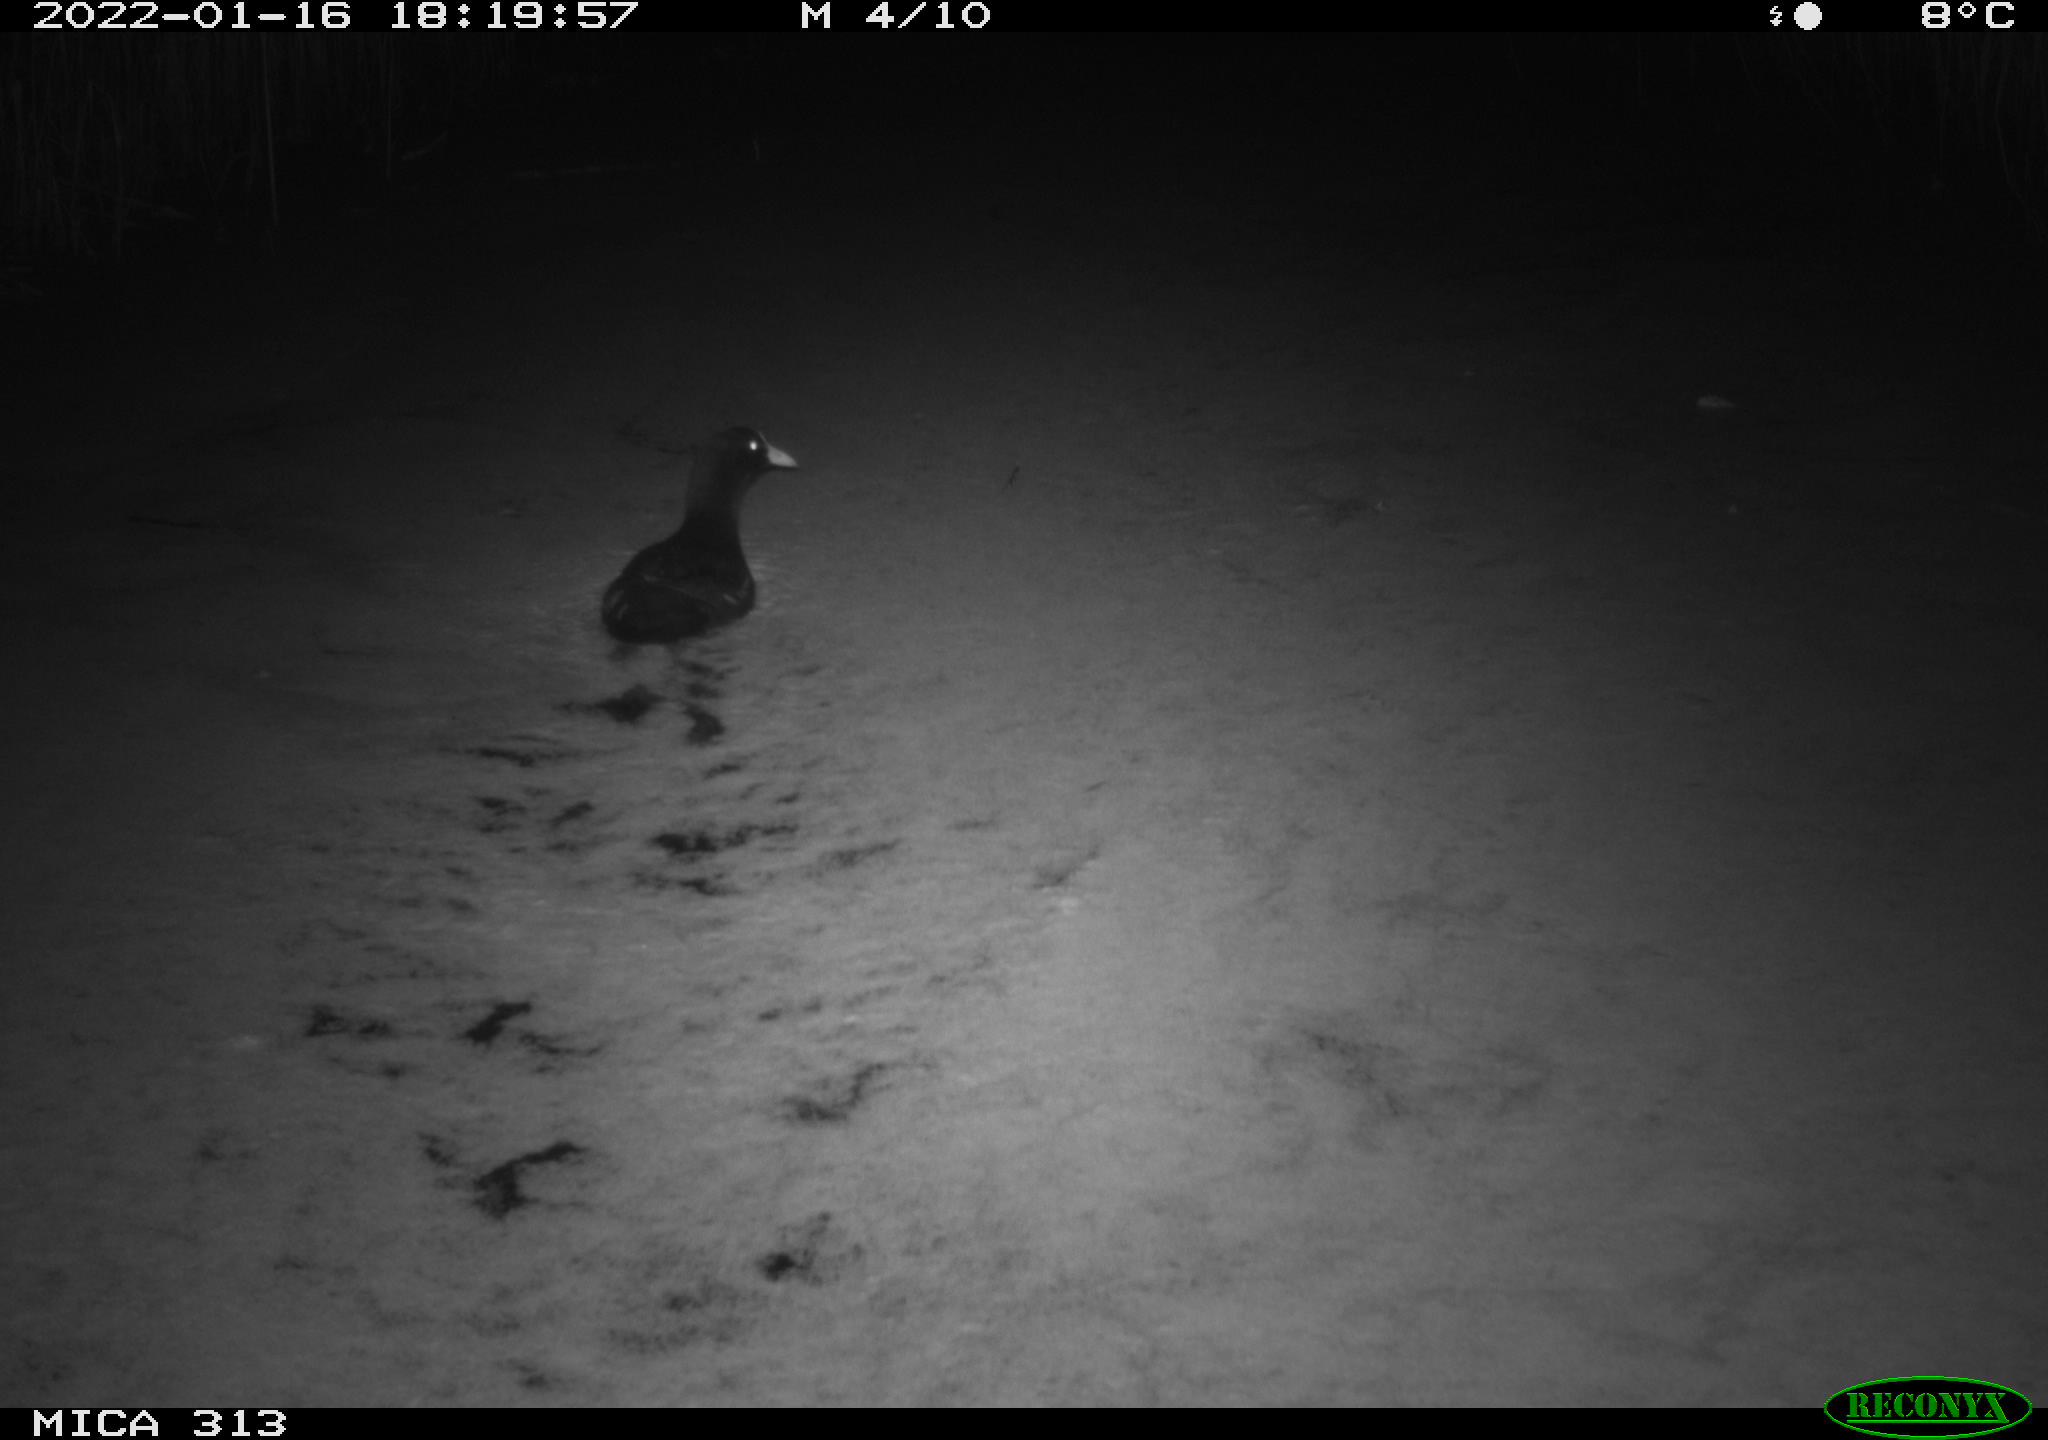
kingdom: Animalia
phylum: Chordata
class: Aves
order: Anseriformes
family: Anatidae
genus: Anas
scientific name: Anas
